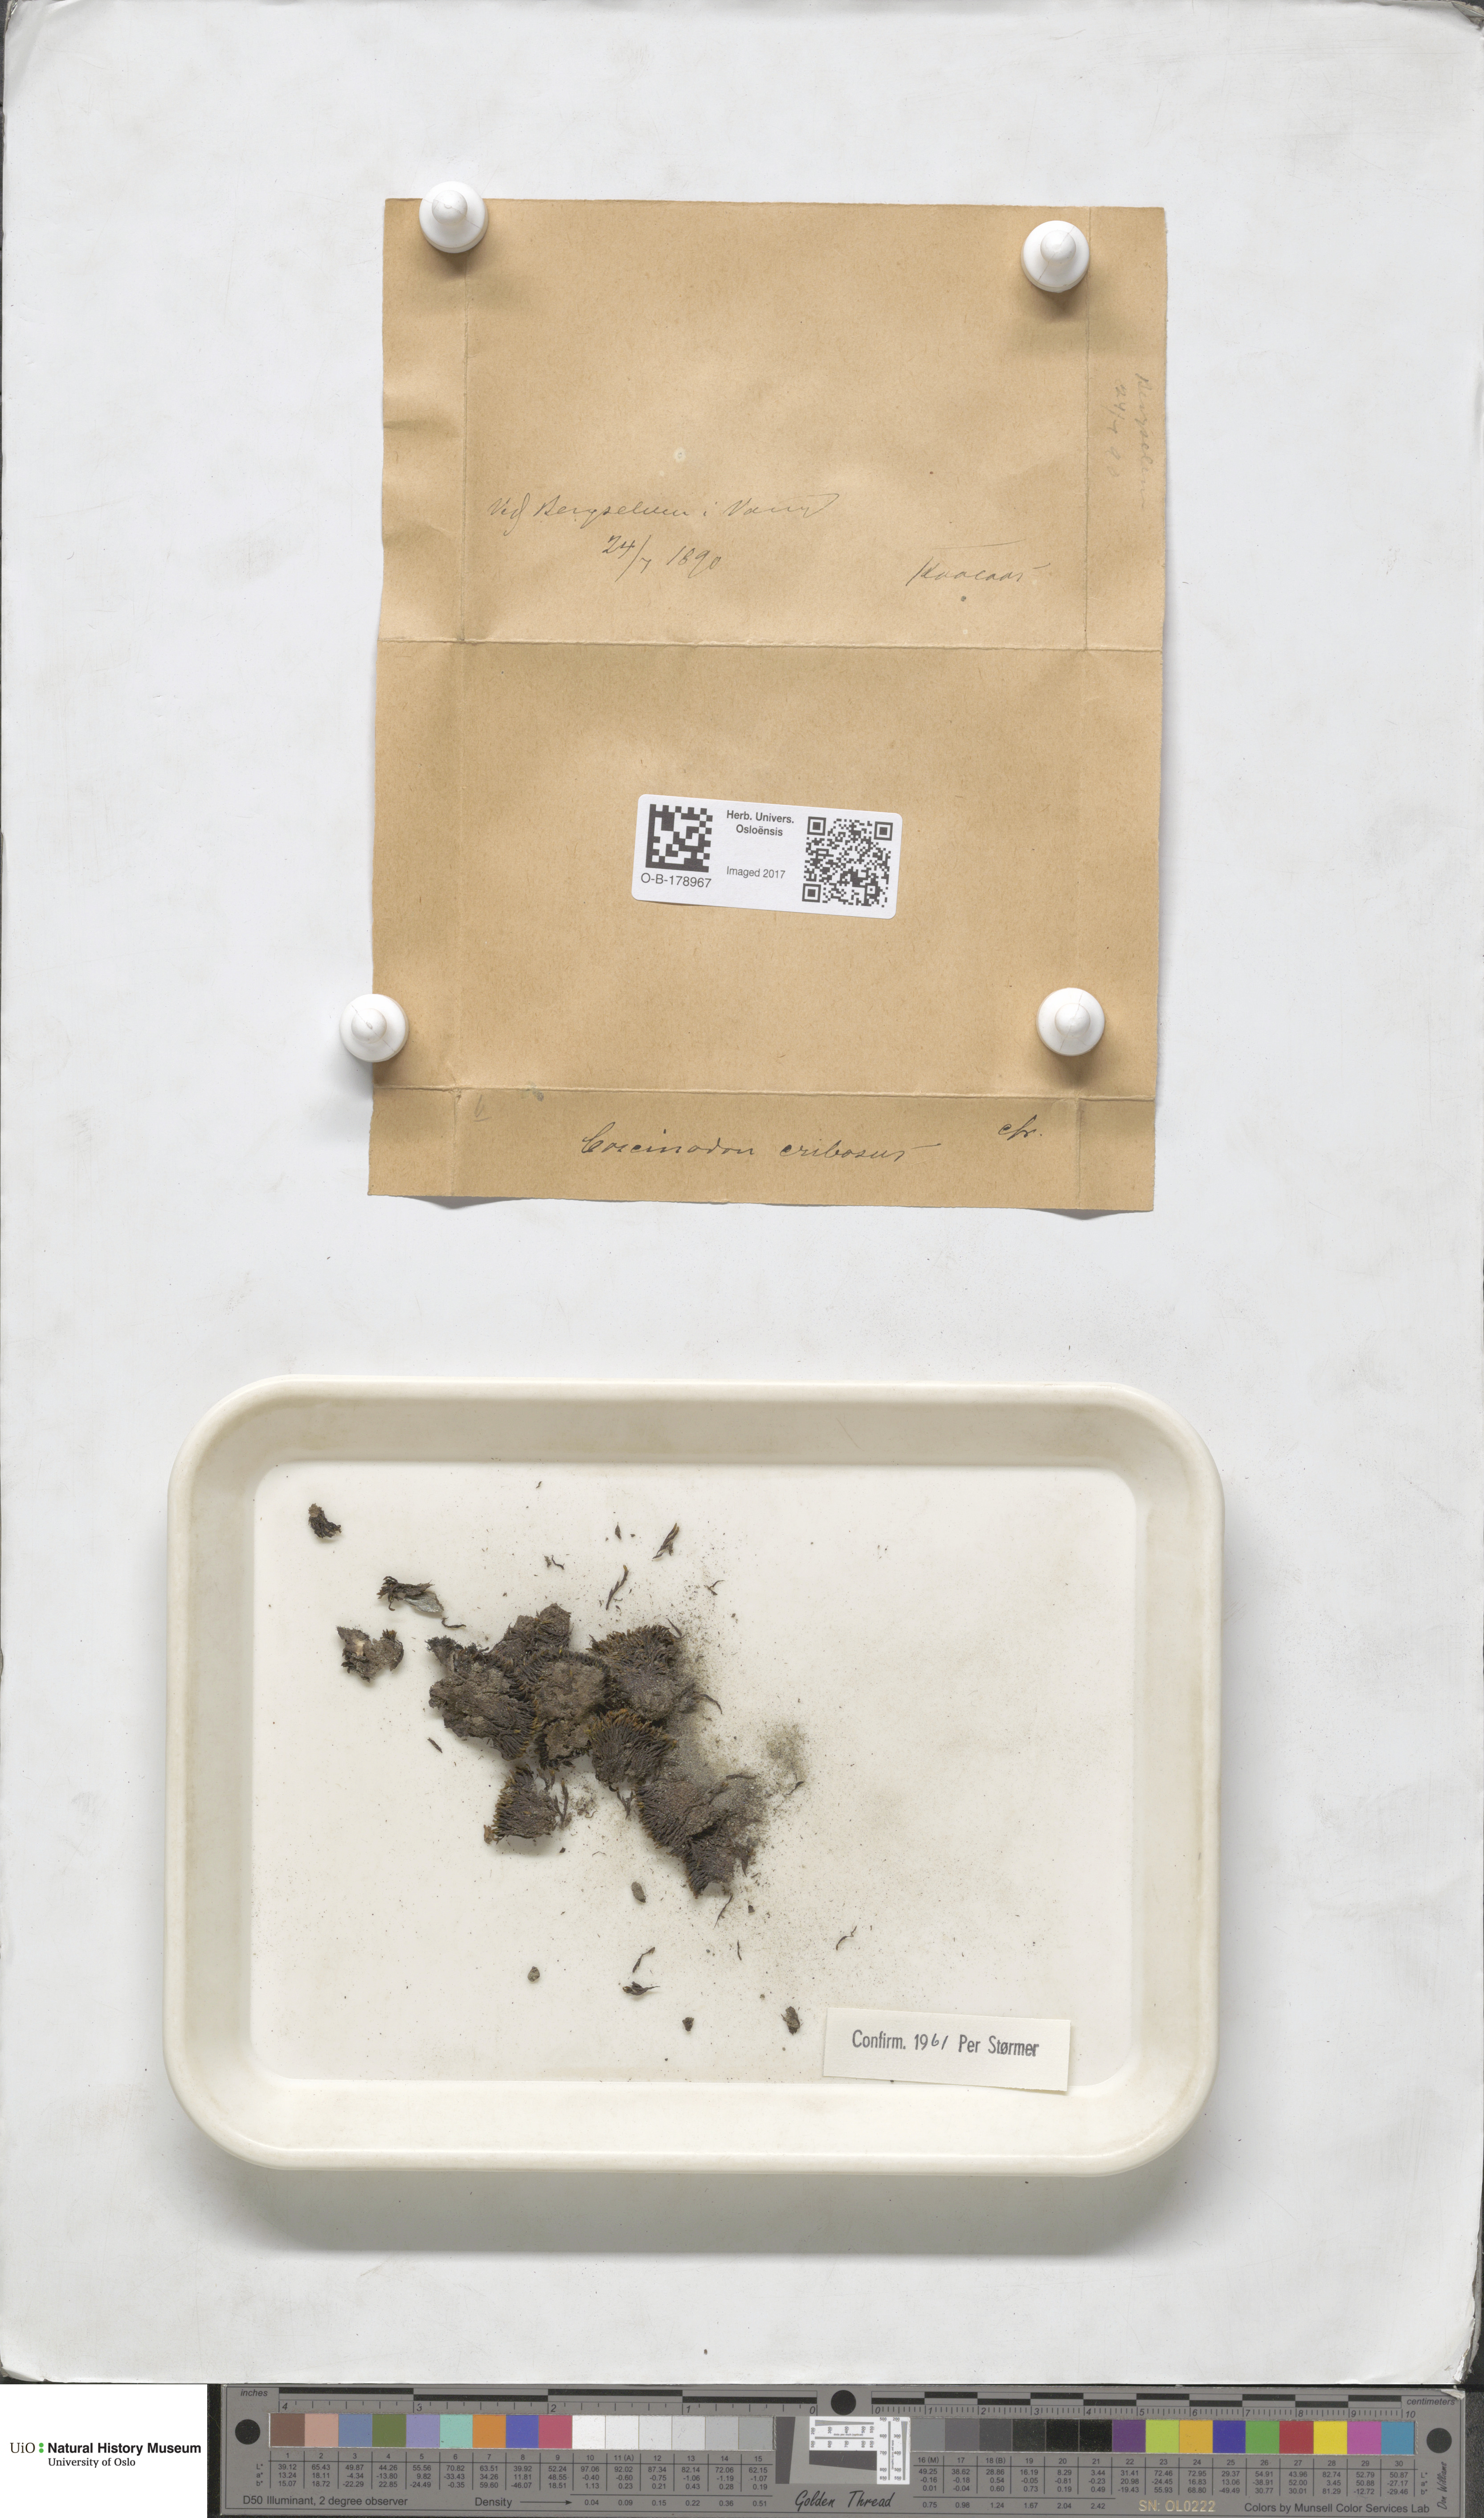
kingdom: Plantae
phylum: Bryophyta
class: Bryopsida
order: Bartramiales
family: Bartramiaceae
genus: Conostomum
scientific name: Conostomum tetragonum
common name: Helmet moss
